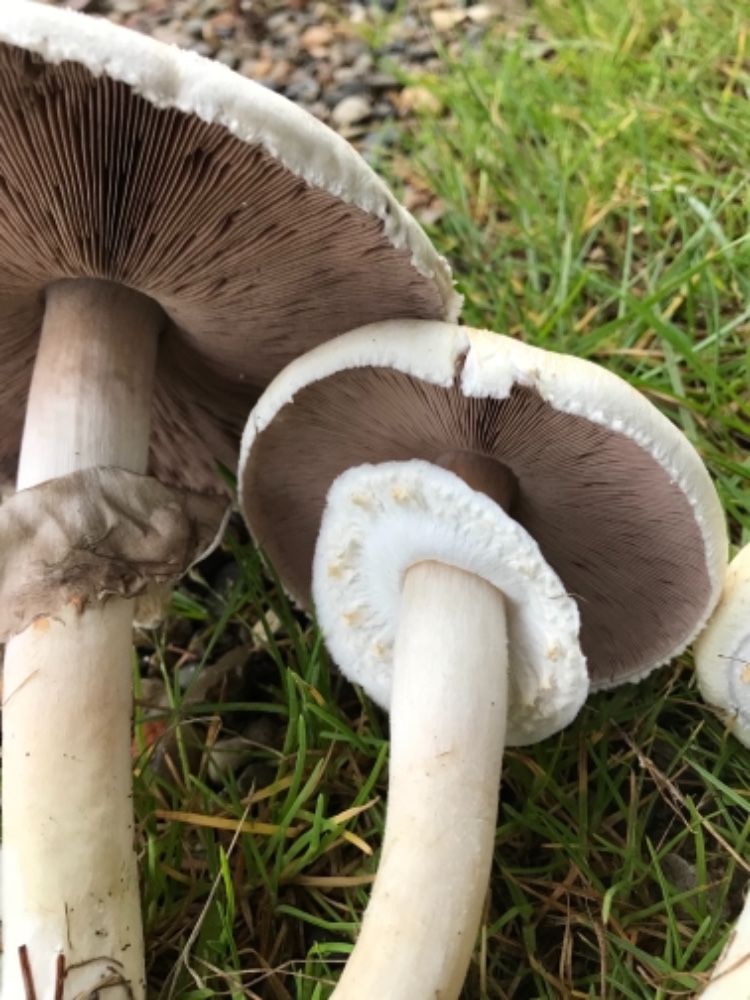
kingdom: Fungi
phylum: Basidiomycota
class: Agaricomycetes
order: Agaricales
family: Agaricaceae
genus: Agaricus
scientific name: Agaricus arvensis
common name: ager-champignon
